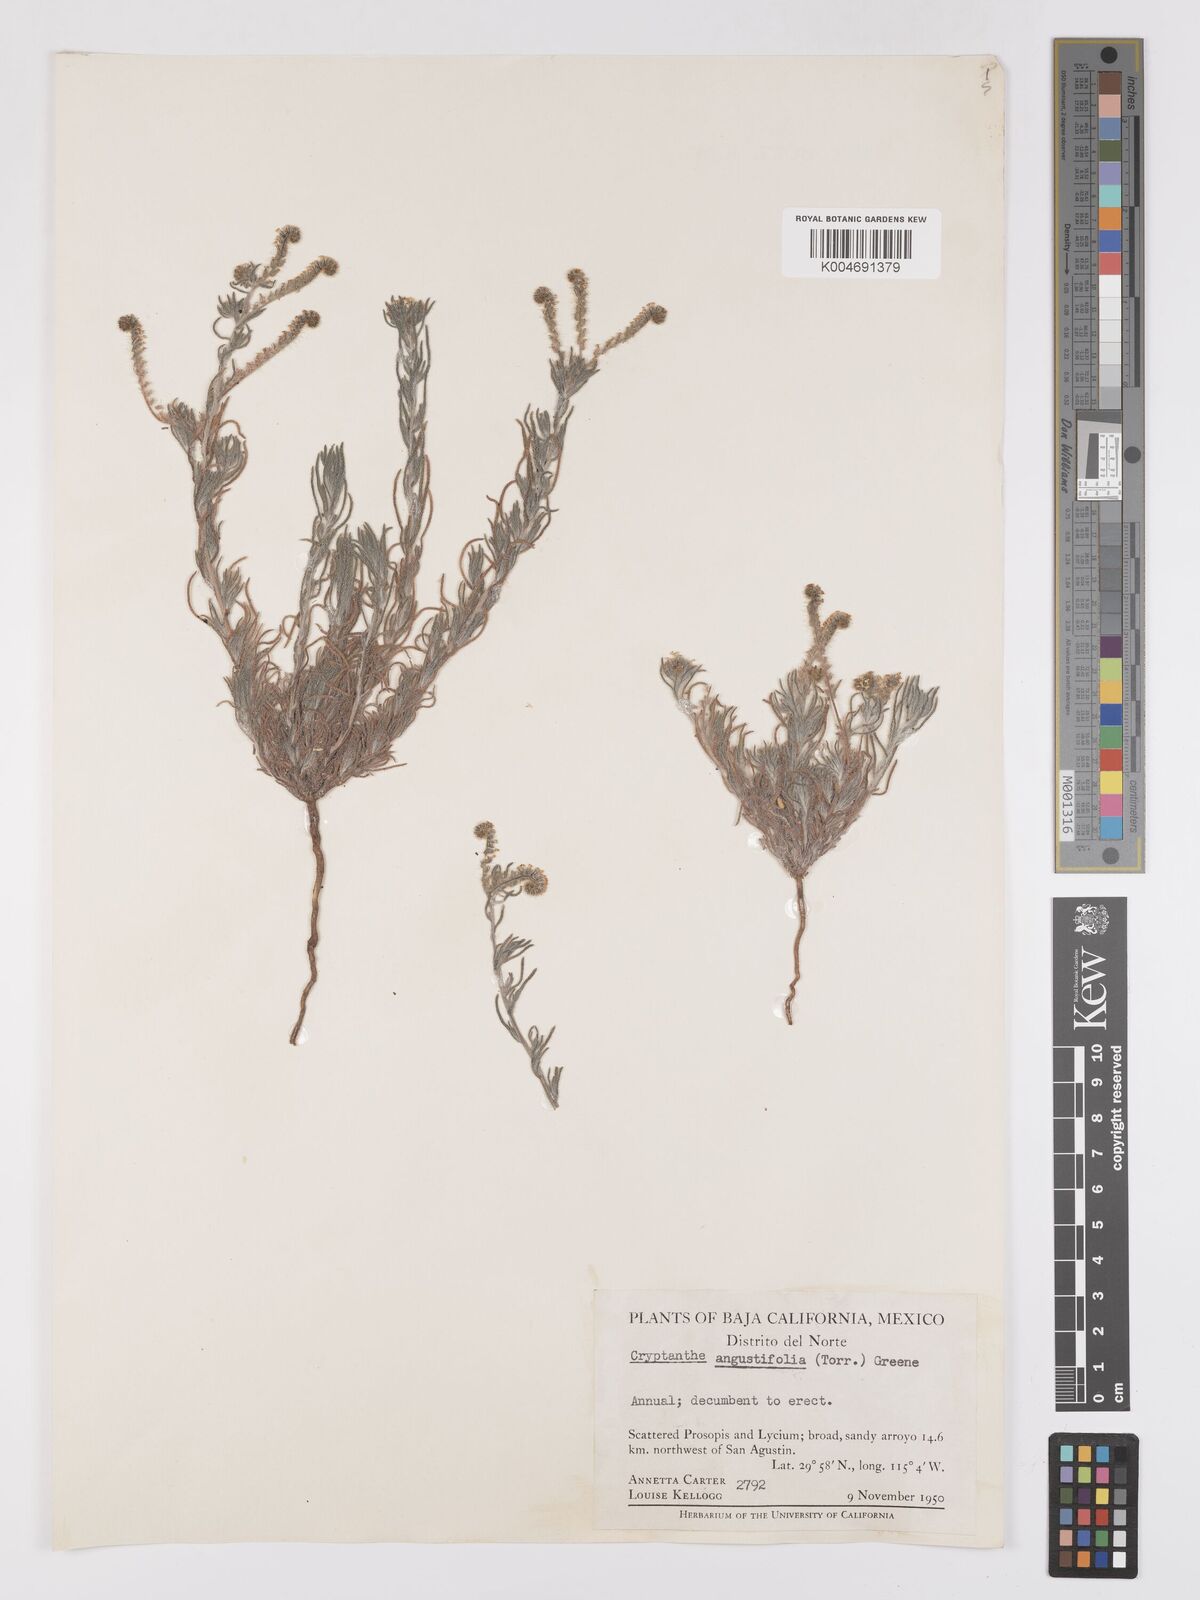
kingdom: Plantae
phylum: Tracheophyta
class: Magnoliopsida
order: Boraginales
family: Boraginaceae
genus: Johnstonella
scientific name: Johnstonella angustifolia
